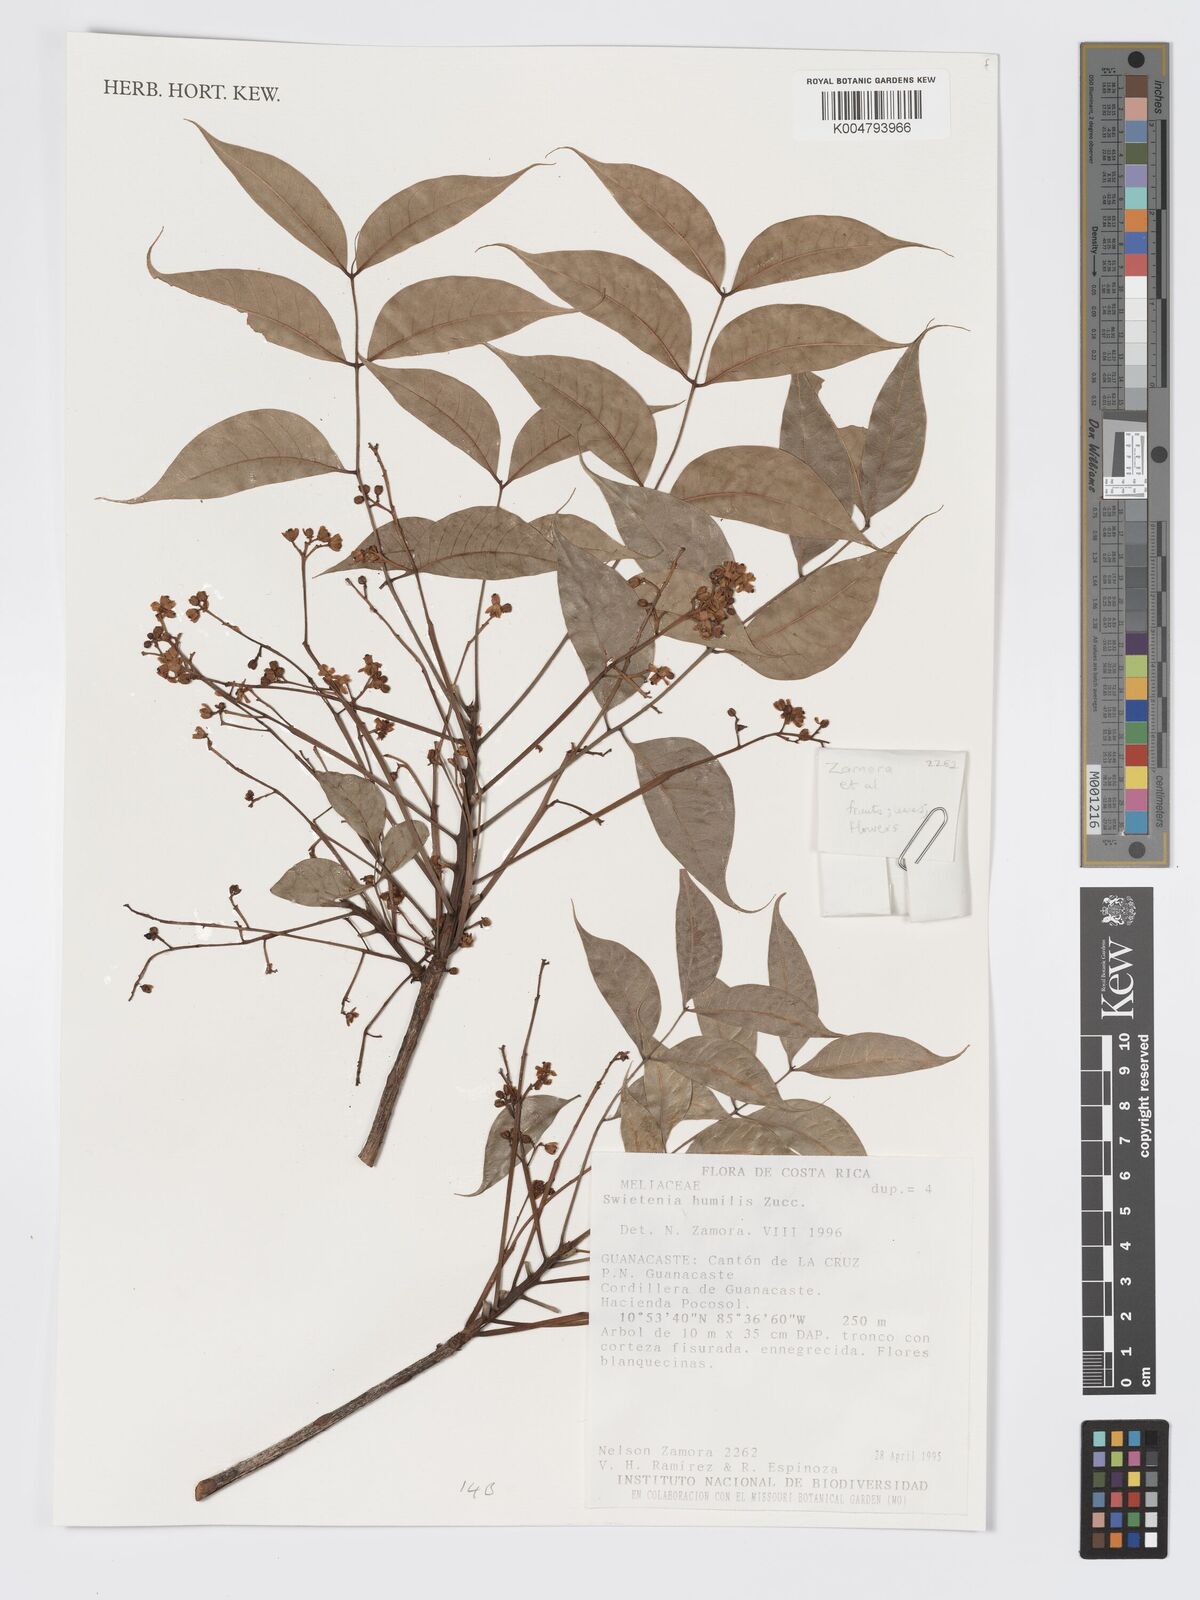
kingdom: Plantae
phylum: Tracheophyta
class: Magnoliopsida
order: Sapindales
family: Meliaceae
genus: Swietenia
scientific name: Swietenia humilis
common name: Pacific coast mahogany
